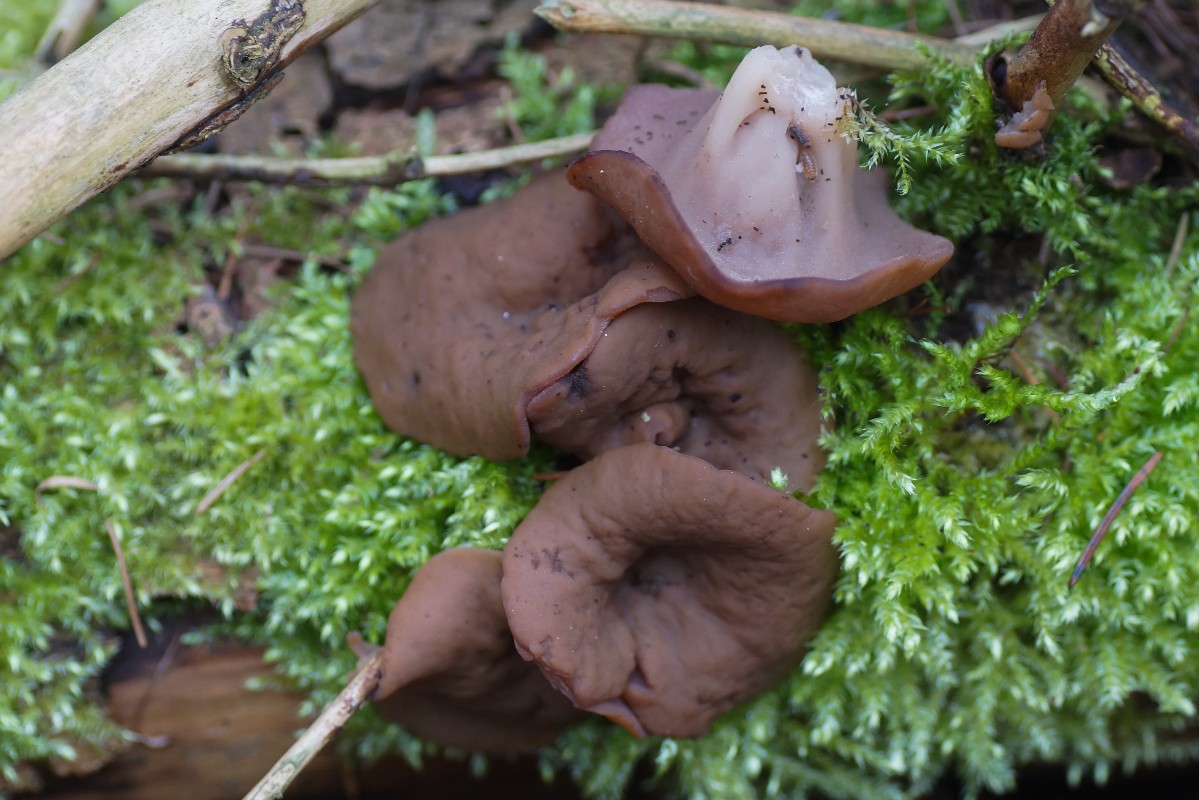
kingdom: Fungi
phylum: Ascomycota
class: Pezizomycetes
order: Pezizales
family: Discinaceae
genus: Discina
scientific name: Discina ancilis
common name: udbredt stenmorkel
